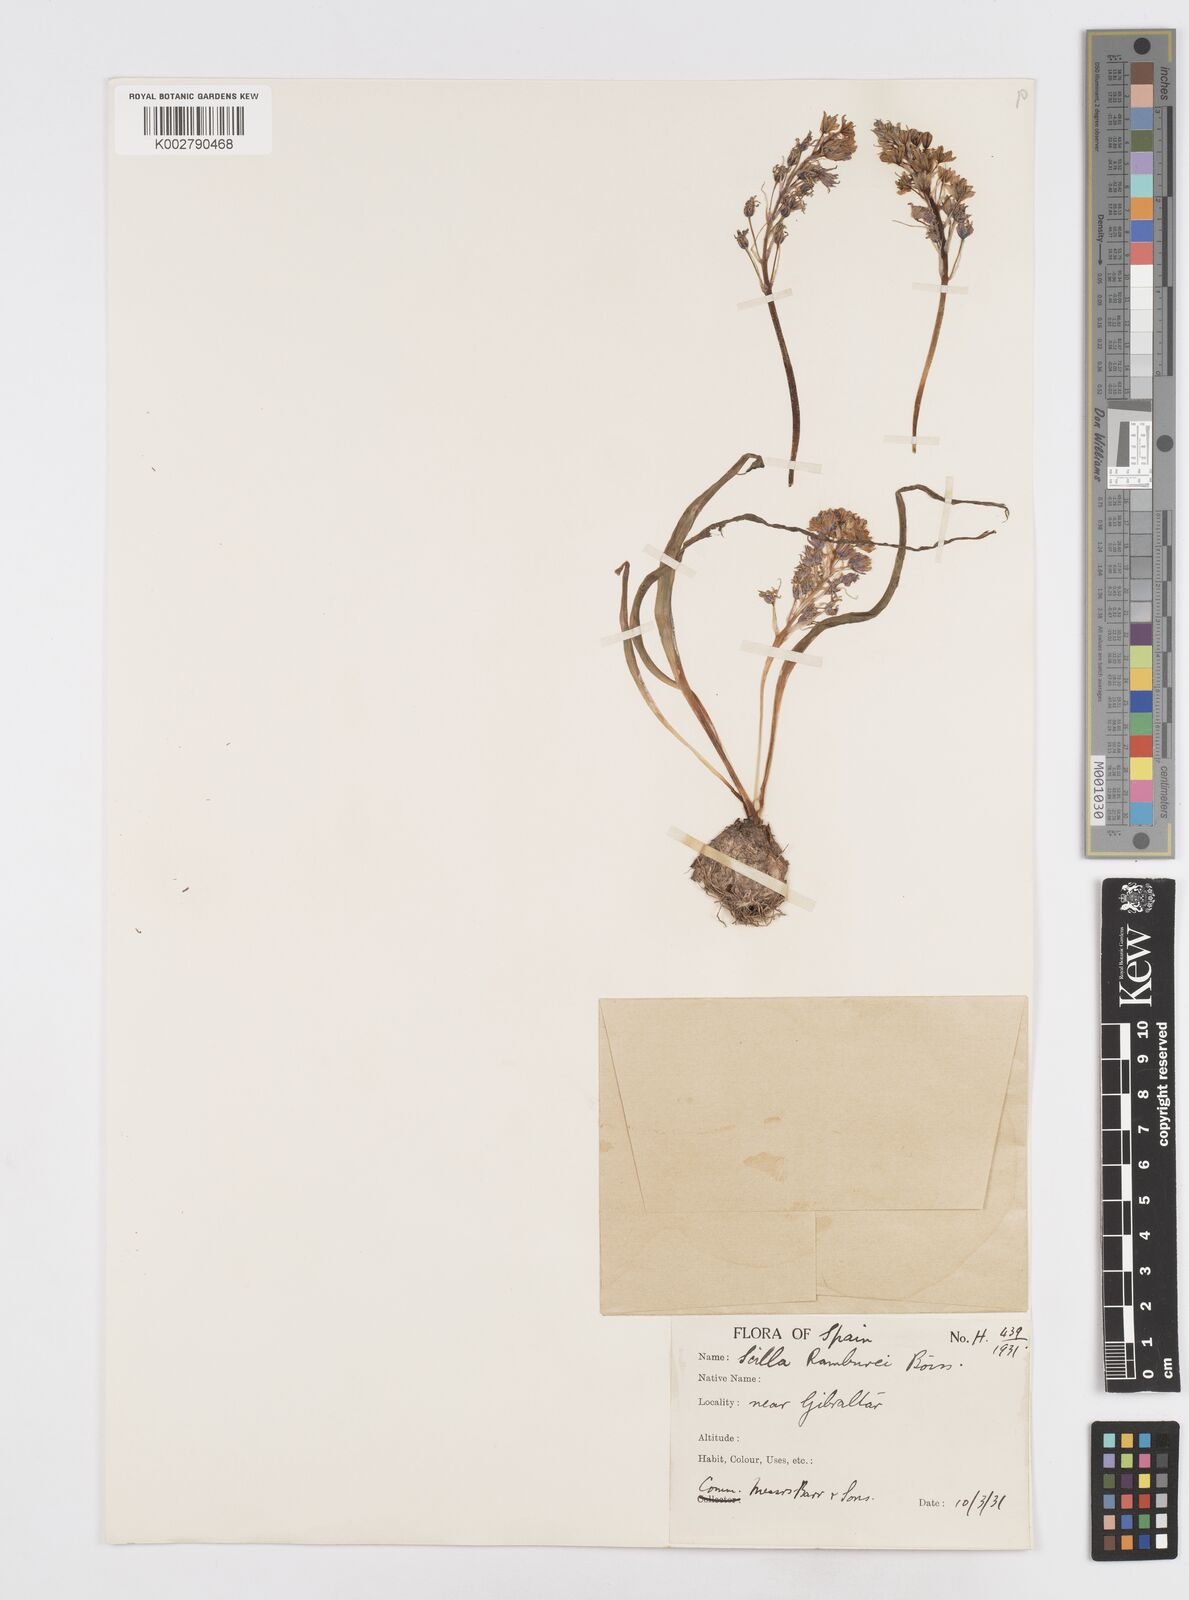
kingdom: Plantae
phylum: Tracheophyta
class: Liliopsida
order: Asparagales
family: Asparagaceae
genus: Scilla
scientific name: Scilla verna
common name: Spring squill
